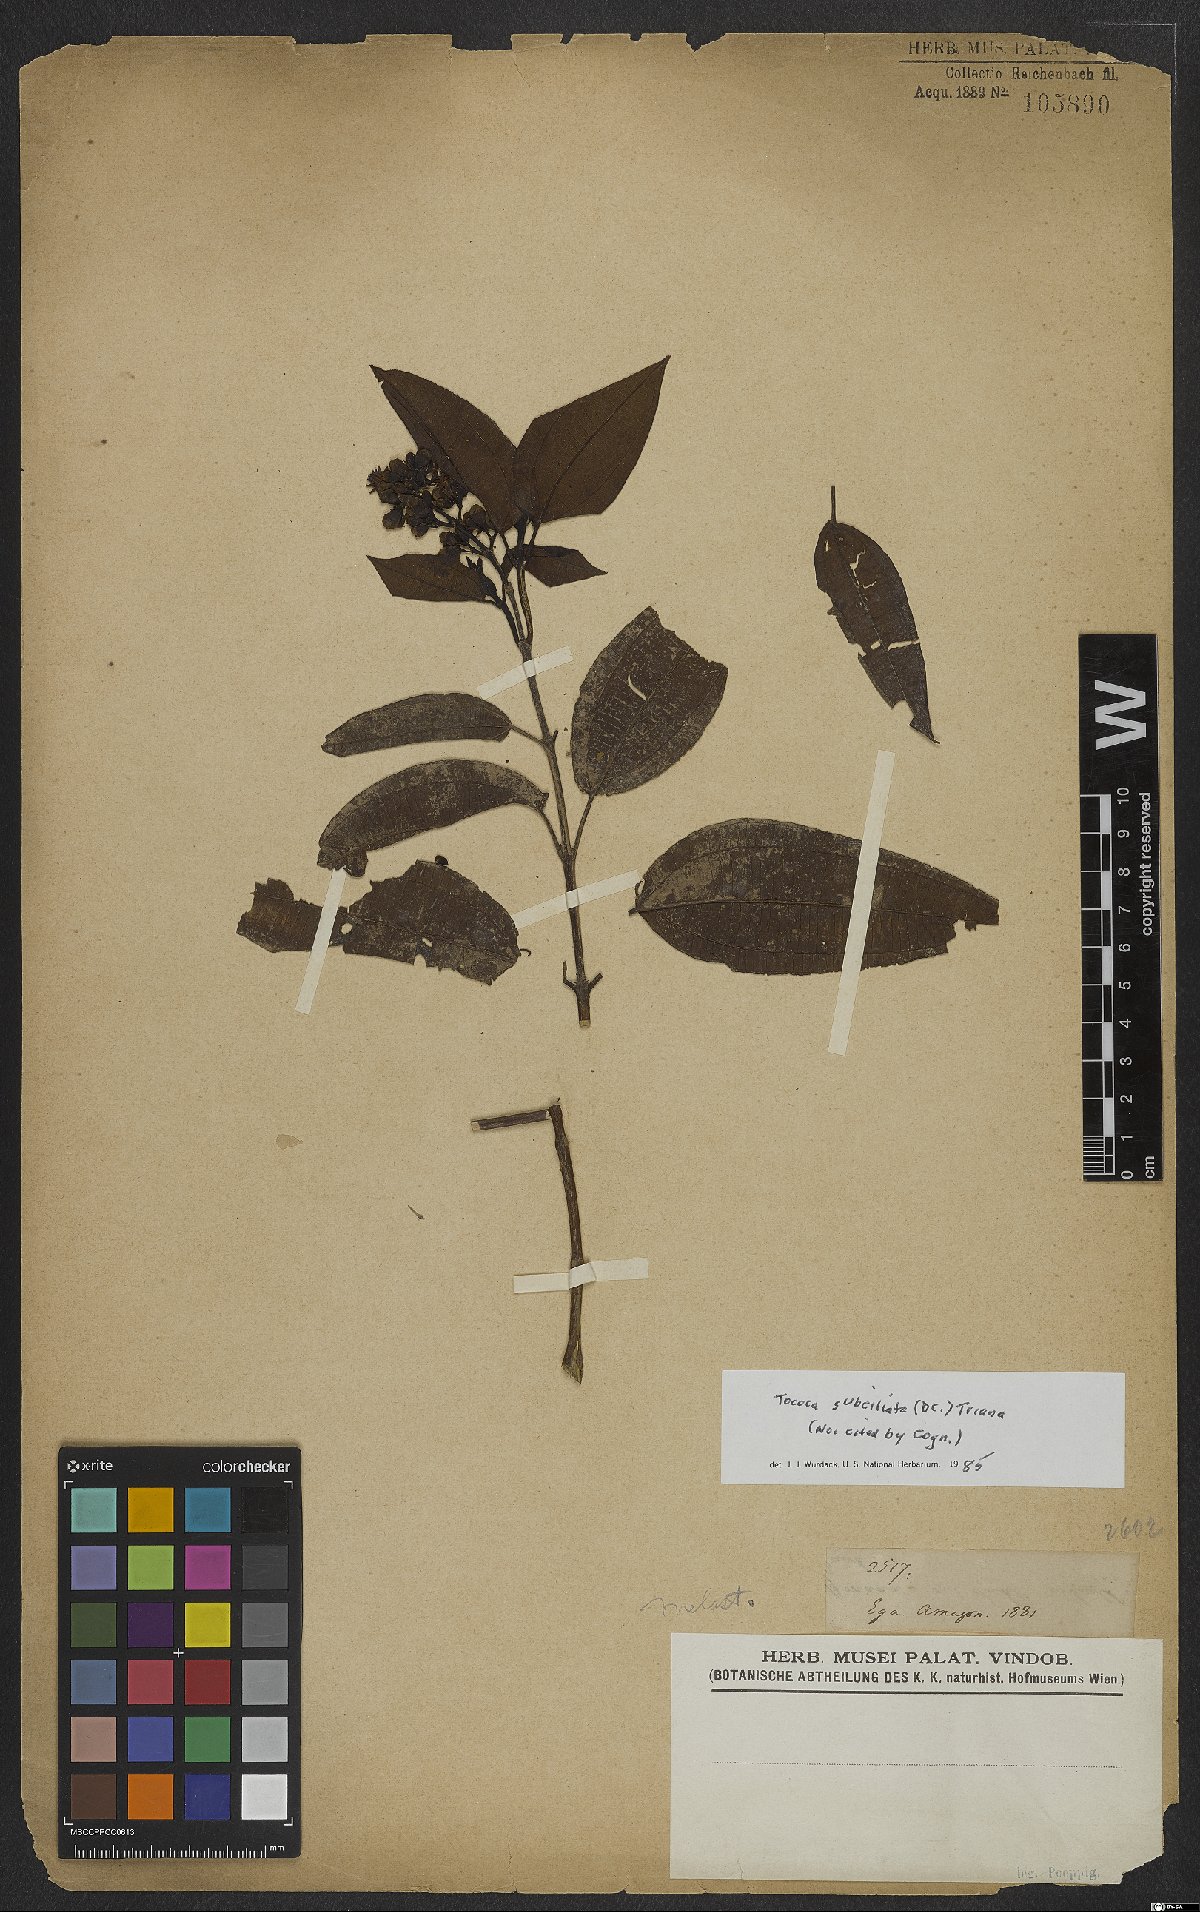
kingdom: Plantae
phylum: Tracheophyta
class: Magnoliopsida
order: Myrtales
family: Melastomataceae
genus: Miconia
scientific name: Miconia subciliata
